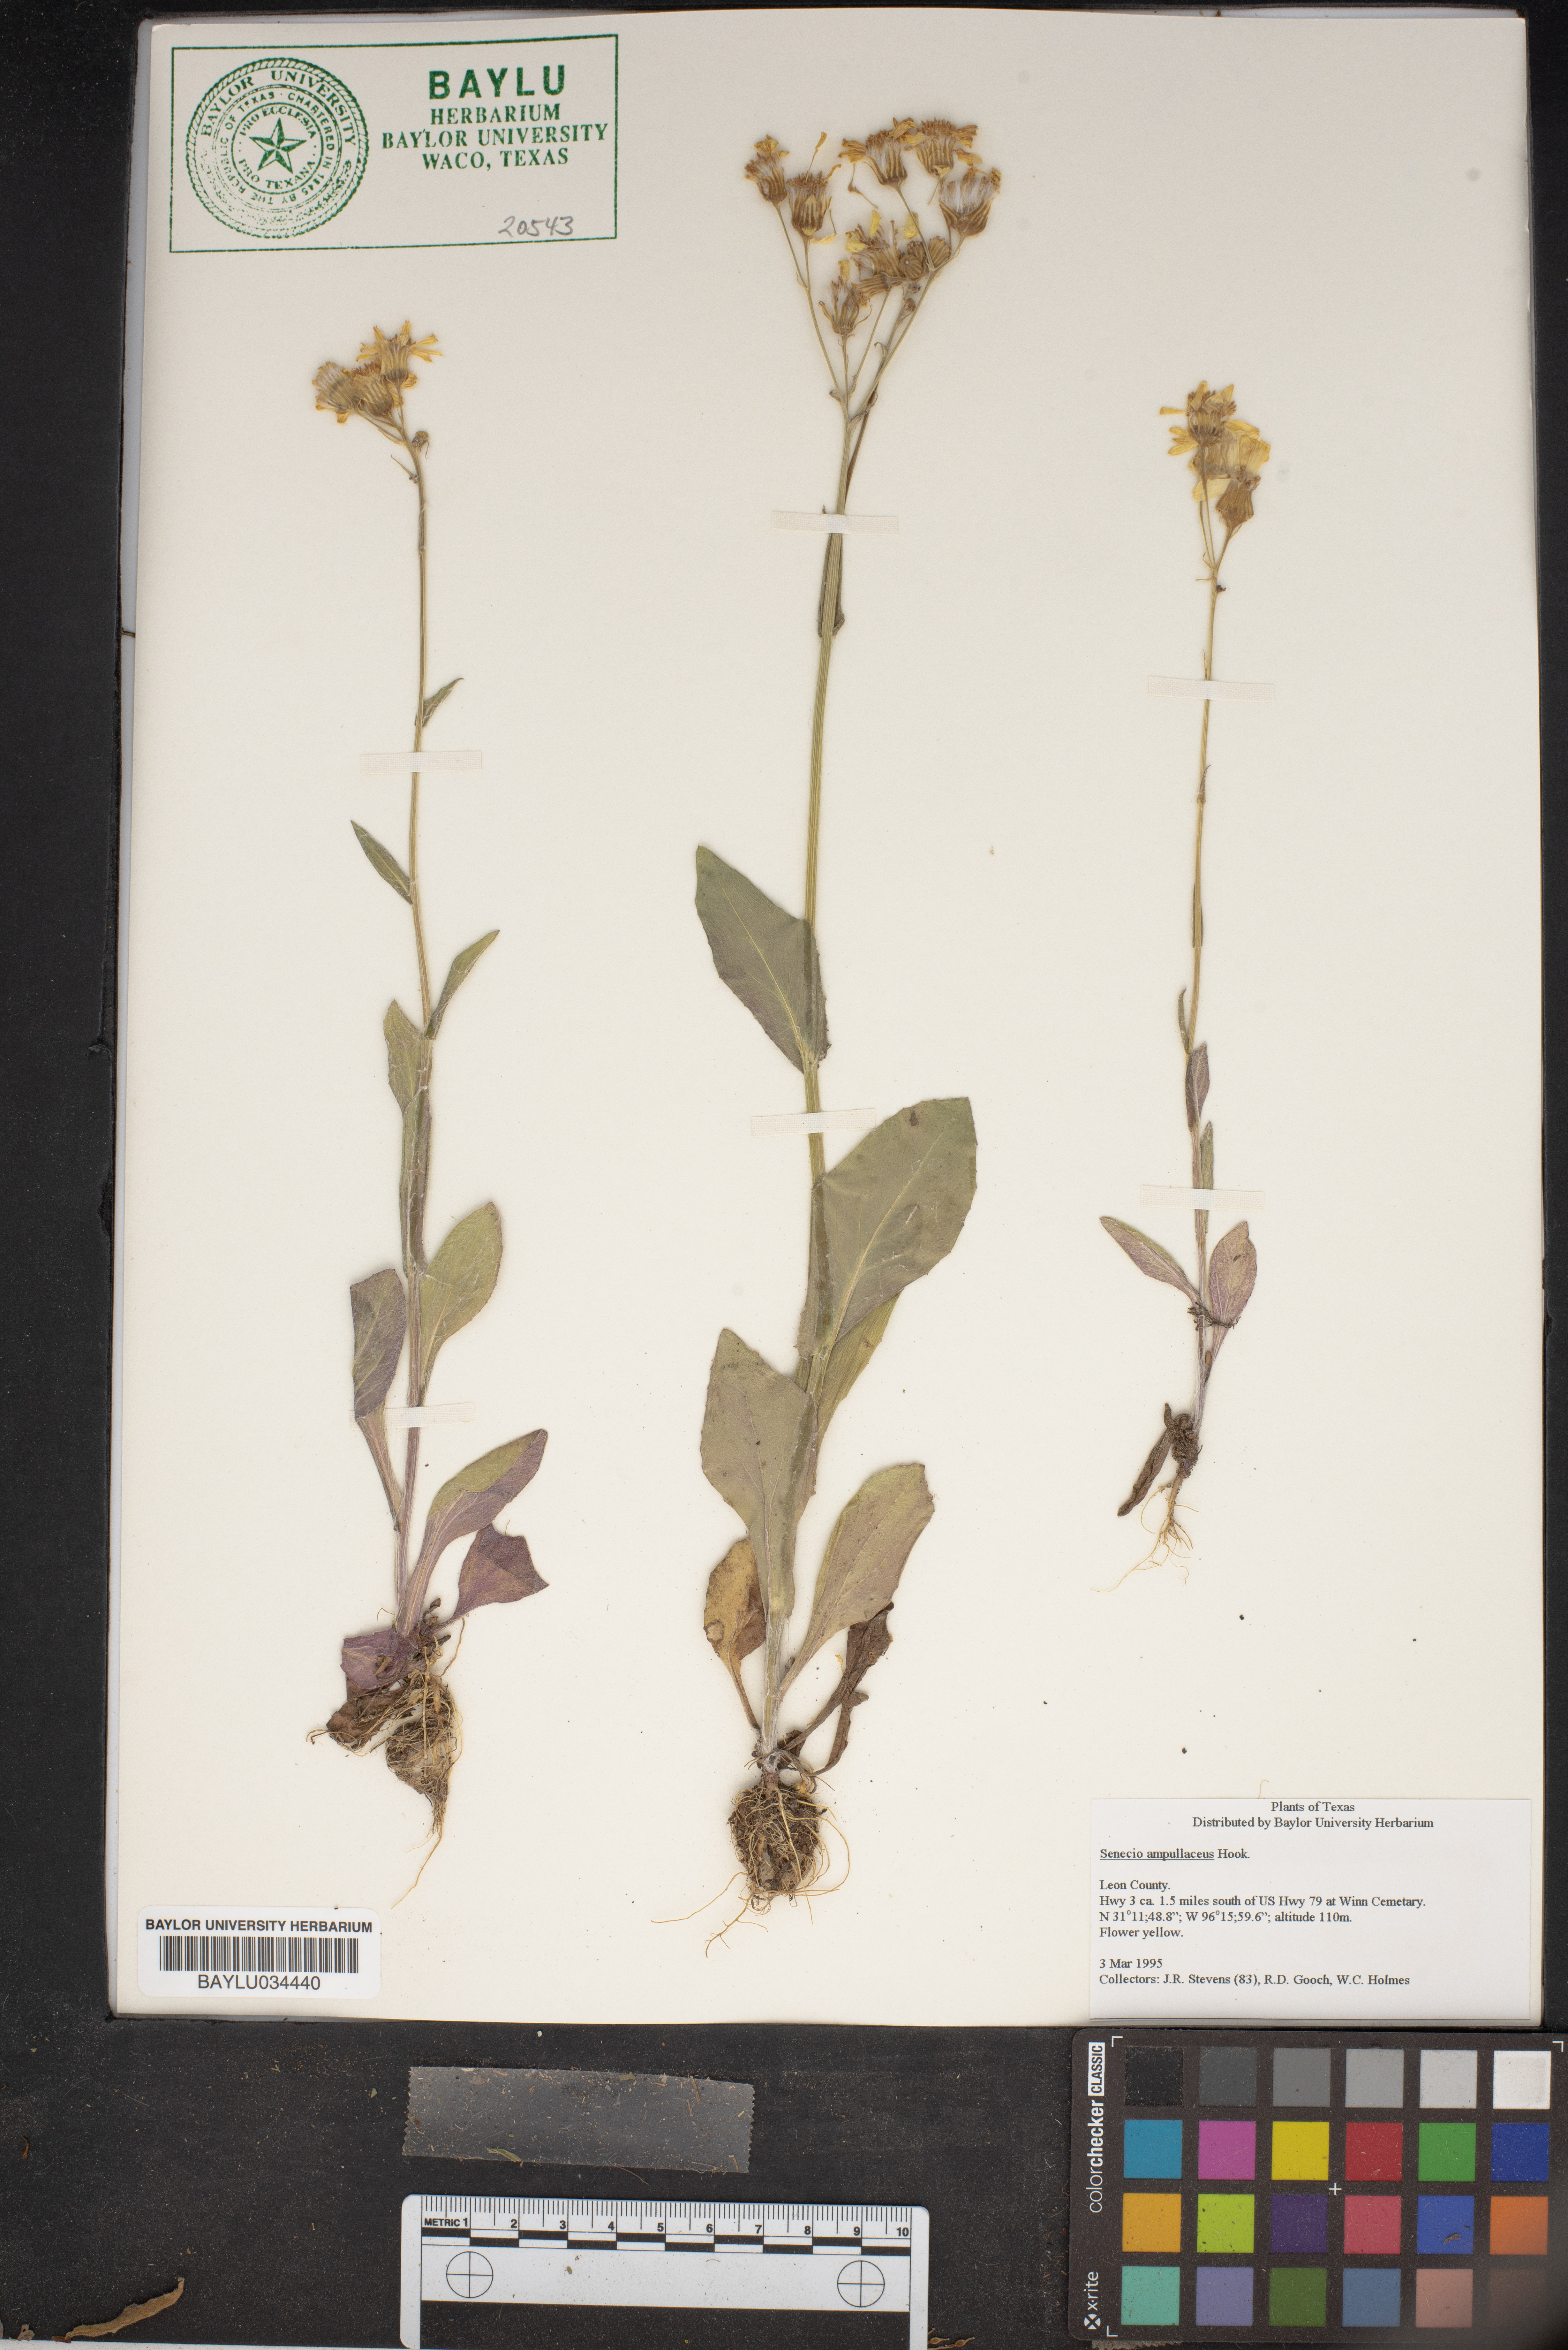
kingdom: Plantae
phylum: Tracheophyta
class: Magnoliopsida
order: Asterales
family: Asteraceae
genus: Senecio
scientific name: Senecio ampullaceus
